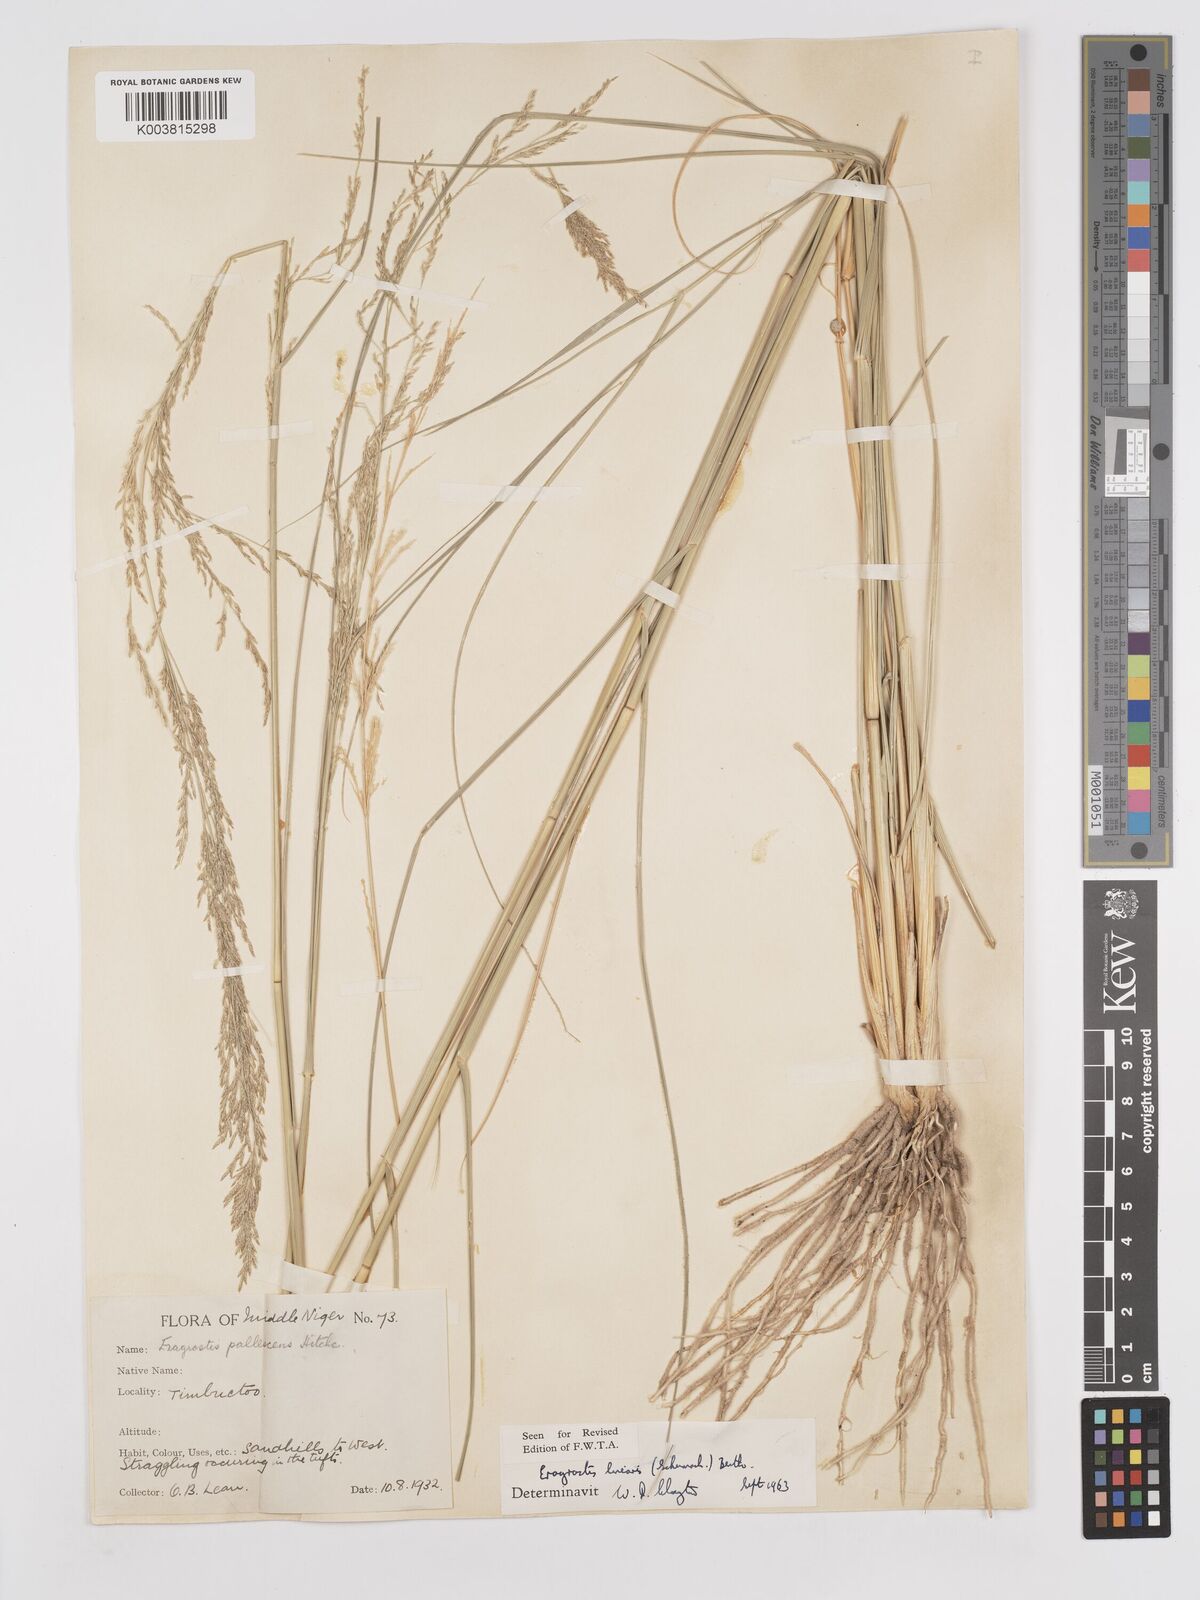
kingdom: Plantae
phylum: Tracheophyta
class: Liliopsida
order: Poales
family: Poaceae
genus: Eragrostis
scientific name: Eragrostis prolifera
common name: Dominican lovegrass
